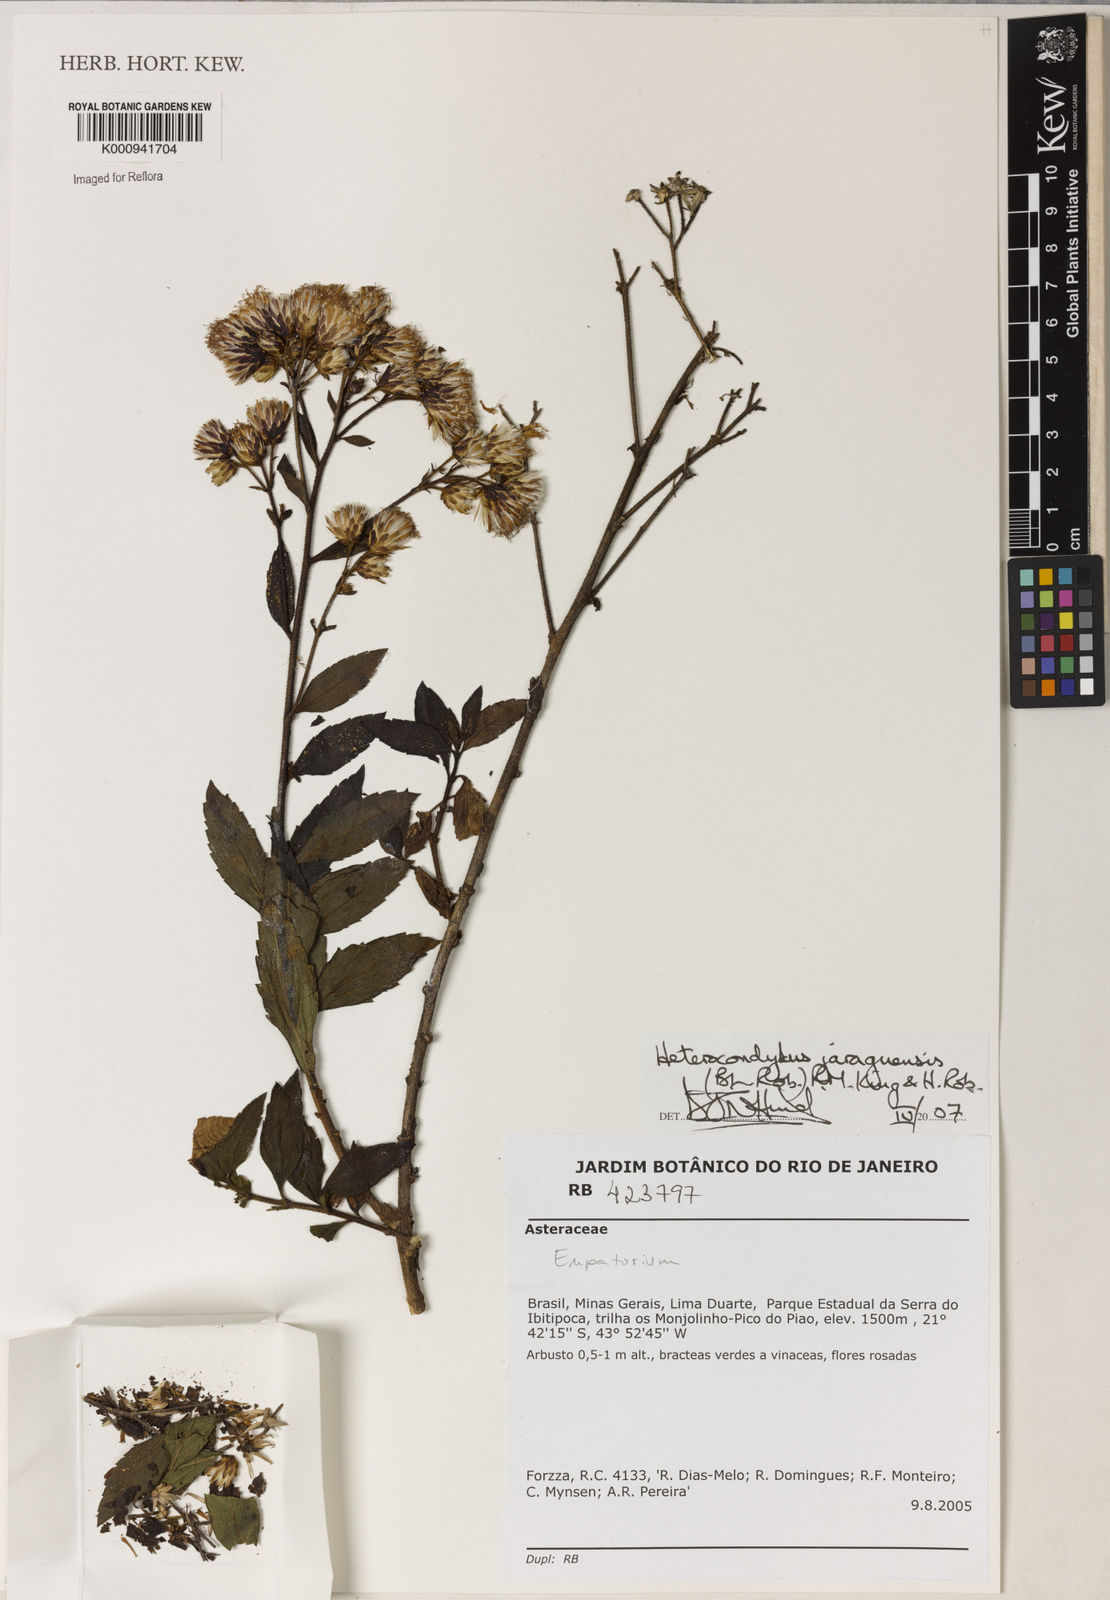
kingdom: Plantae
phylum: Tracheophyta
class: Magnoliopsida
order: Asterales
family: Asteraceae
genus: Heterocondylus
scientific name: Heterocondylus jaraguensis
